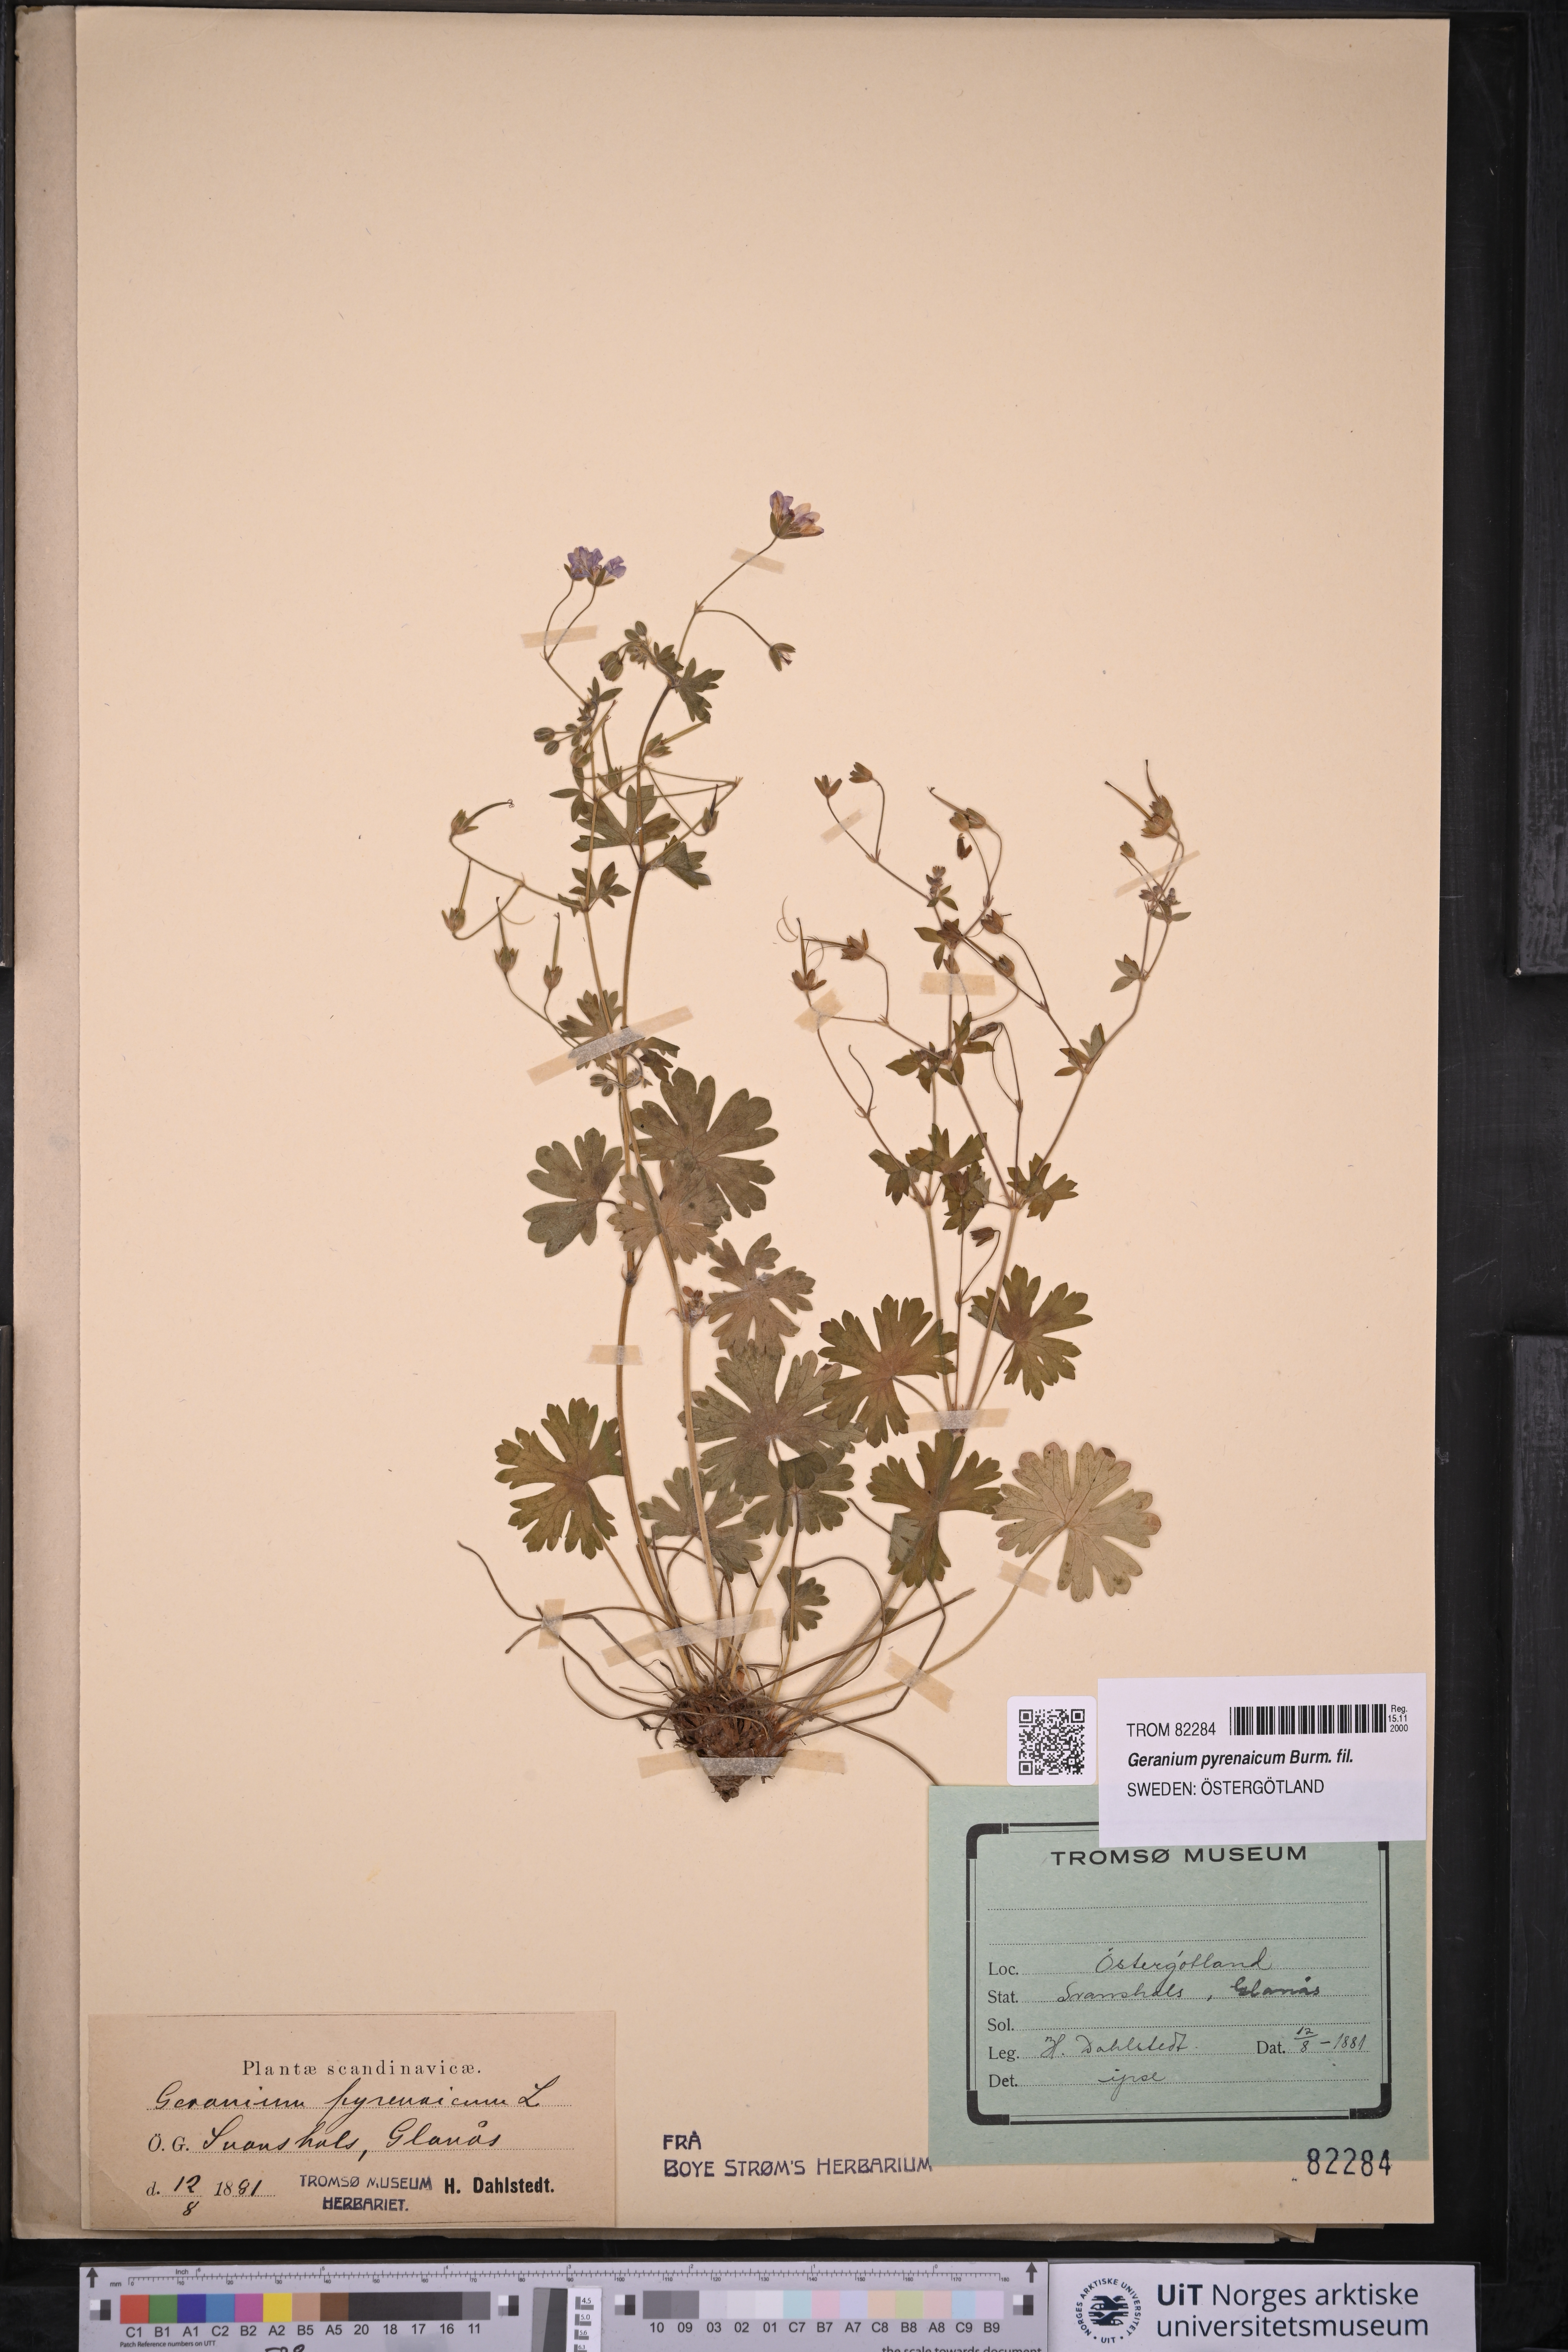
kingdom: Plantae
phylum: Tracheophyta
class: Magnoliopsida
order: Geraniales
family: Geraniaceae
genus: Geranium
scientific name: Geranium pyrenaicum
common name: Hedgerow crane's-bill
